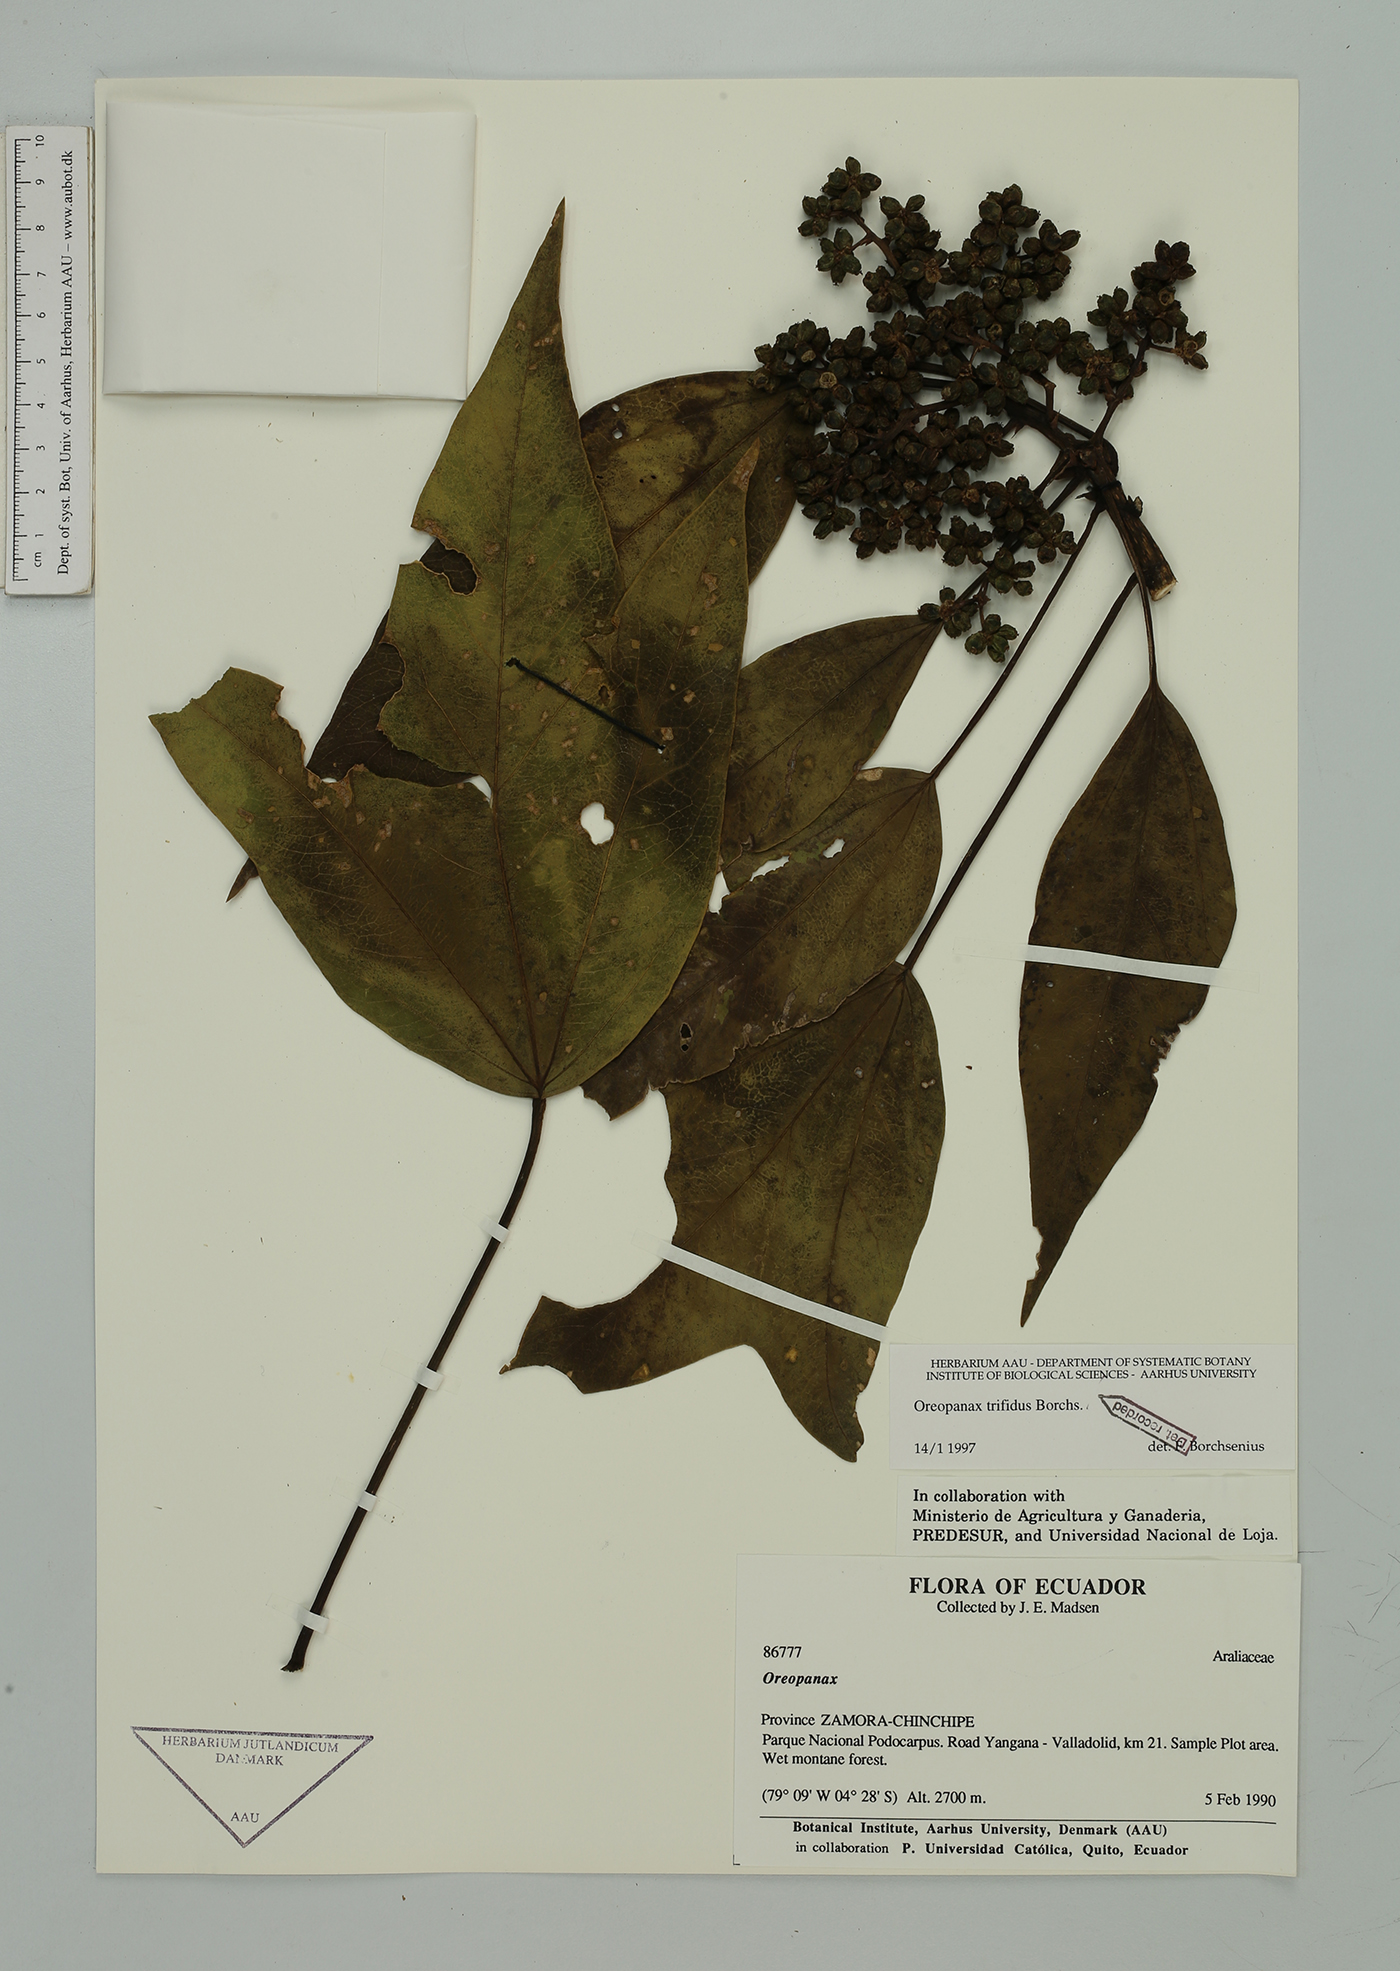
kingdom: Plantae
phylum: Tracheophyta
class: Magnoliopsida
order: Apiales
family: Araliaceae
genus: Oreopanax
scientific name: Oreopanax trifidus
